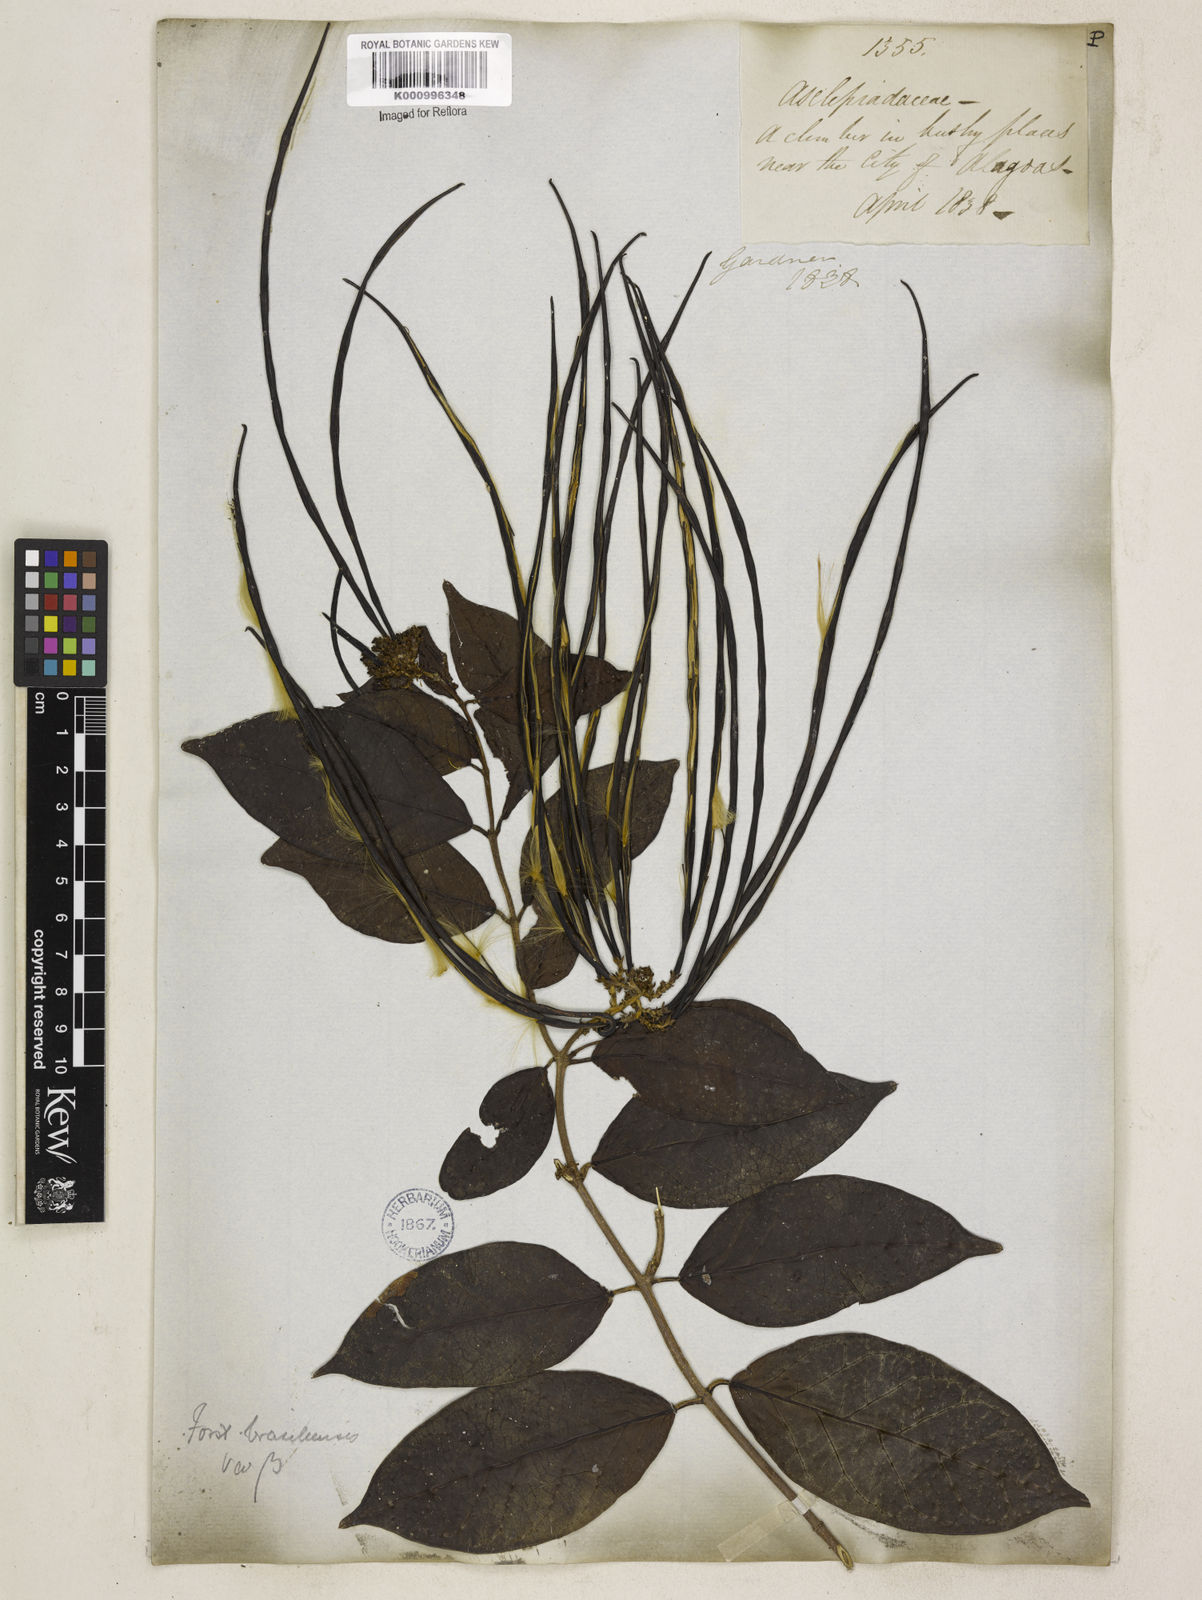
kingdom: Plantae
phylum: Tracheophyta
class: Magnoliopsida
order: Gentianales
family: Apocynaceae
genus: Forsteronia
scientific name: Forsteronia leptocarpa
